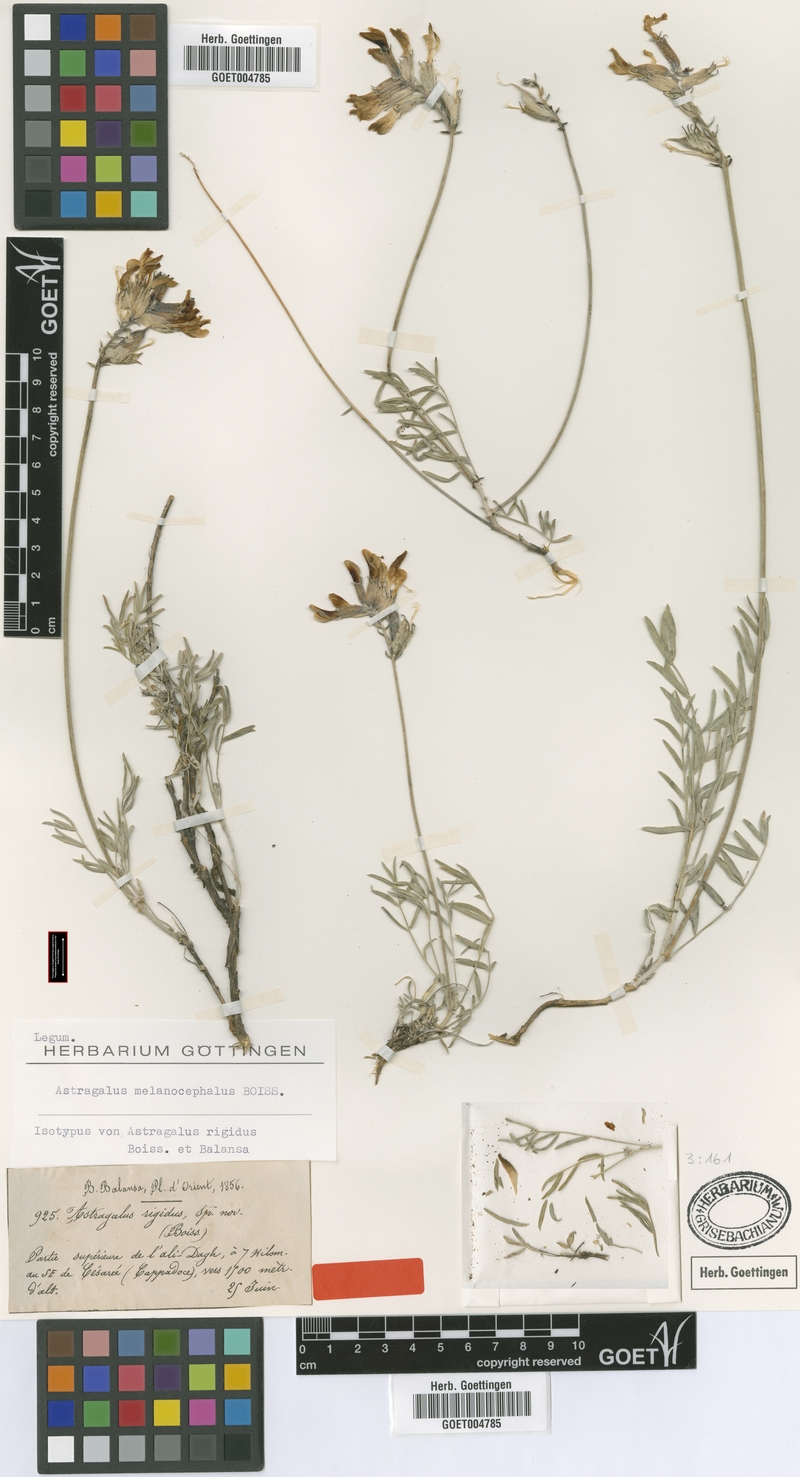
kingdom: Plantae
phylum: Tracheophyta
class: Magnoliopsida
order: Fabales
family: Fabaceae
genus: Astragalus
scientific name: Astragalus melanocephalus
